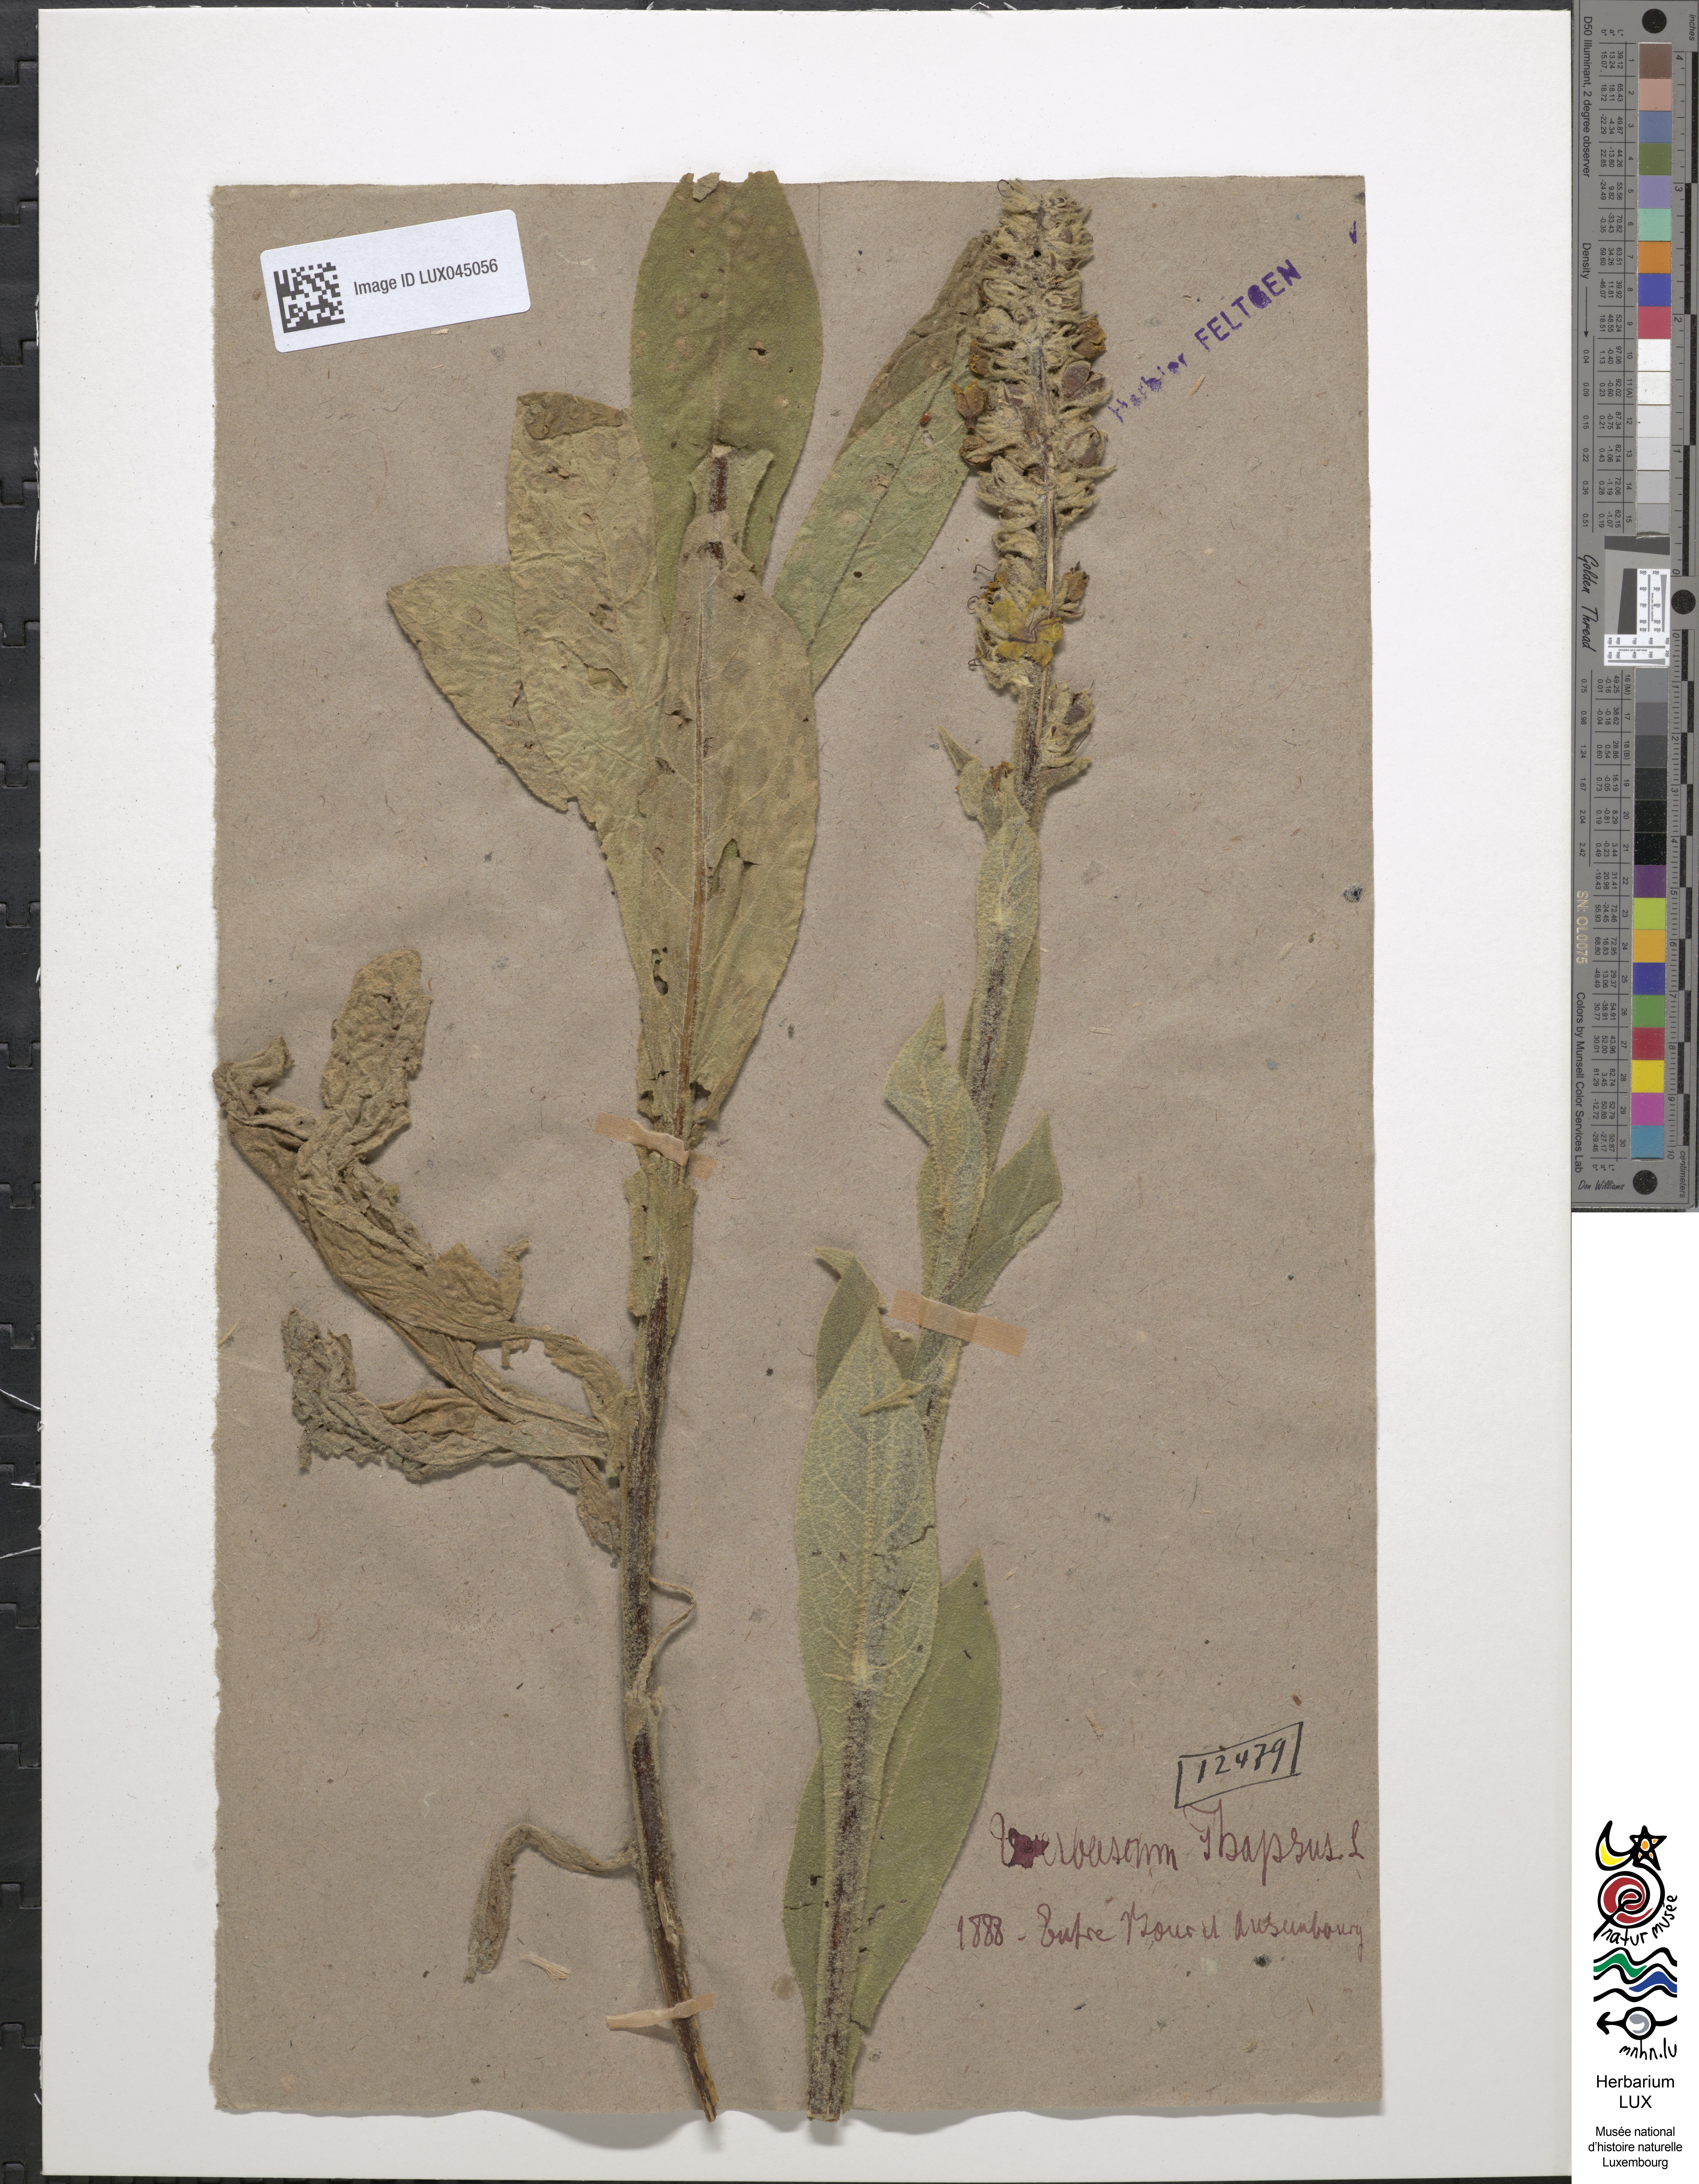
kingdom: Plantae
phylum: Tracheophyta
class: Magnoliopsida
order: Lamiales
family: Scrophulariaceae
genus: Verbascum
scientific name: Verbascum thapsus
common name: Common mullein
